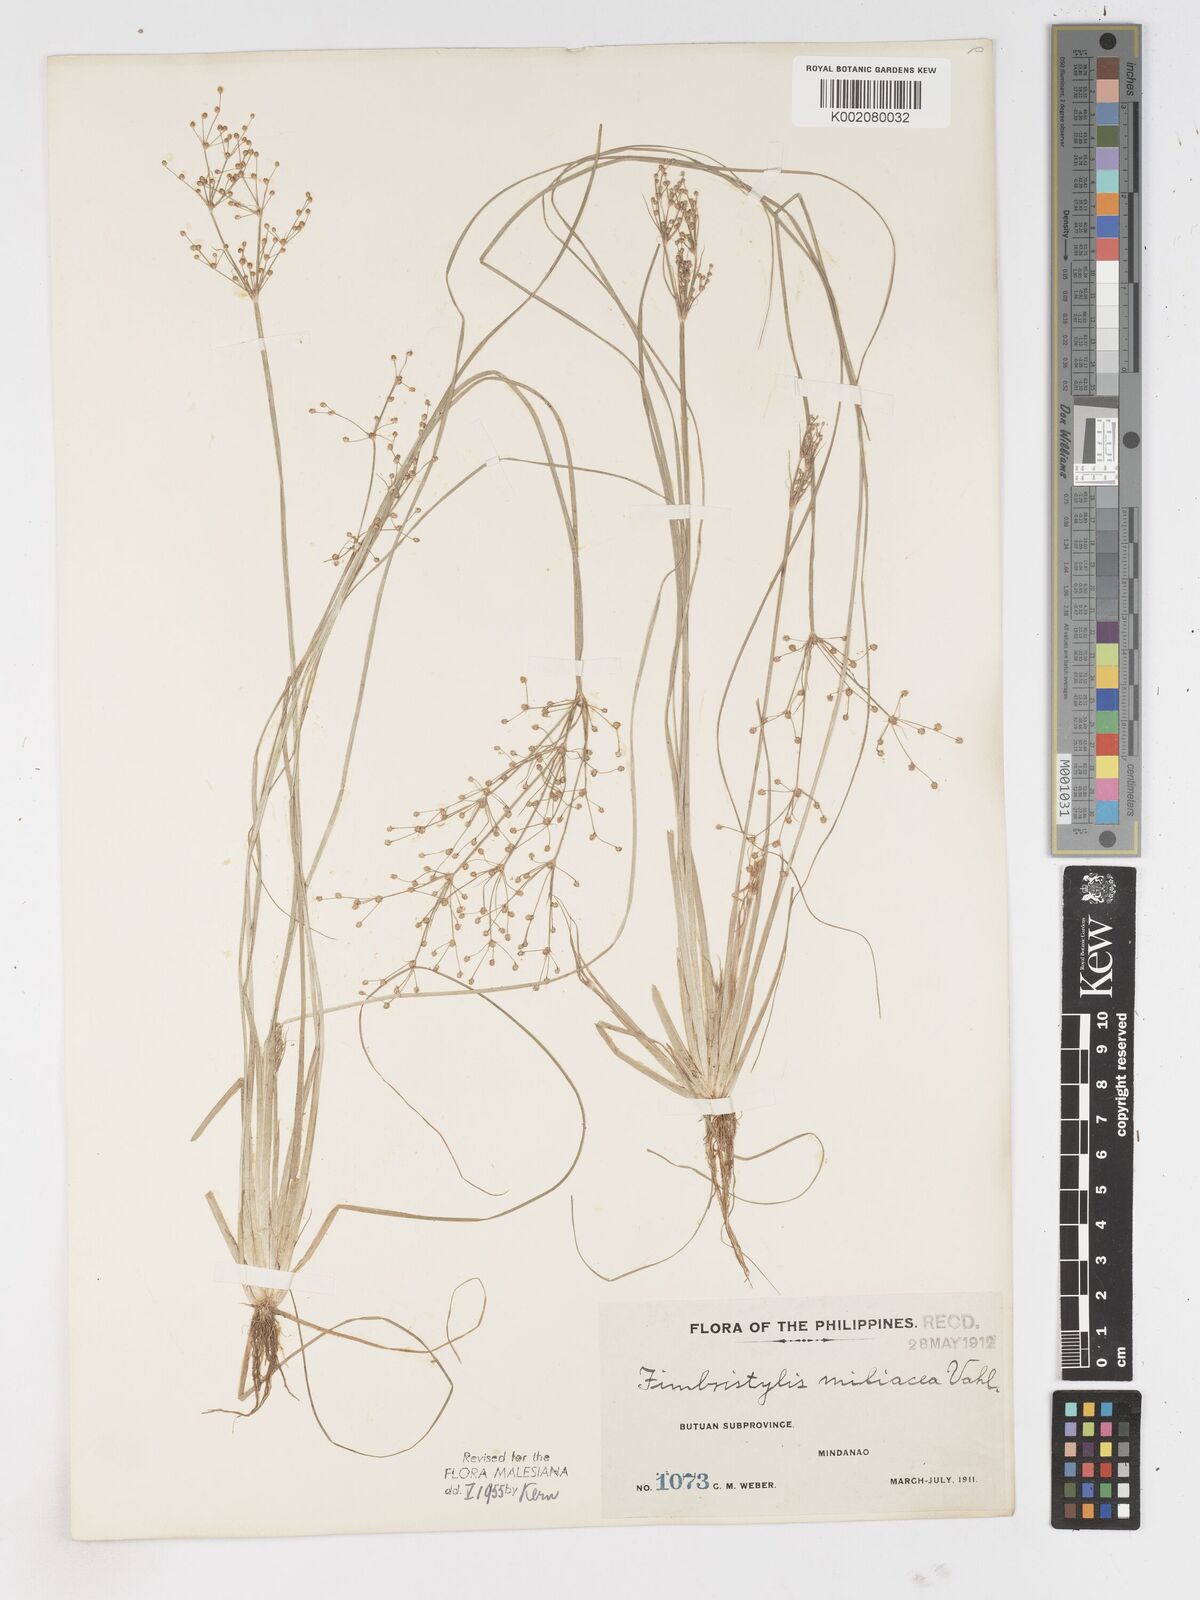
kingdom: Plantae
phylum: Tracheophyta
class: Liliopsida
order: Poales
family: Cyperaceae
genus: Fimbristylis
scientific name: Fimbristylis littoralis
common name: Fimbry
